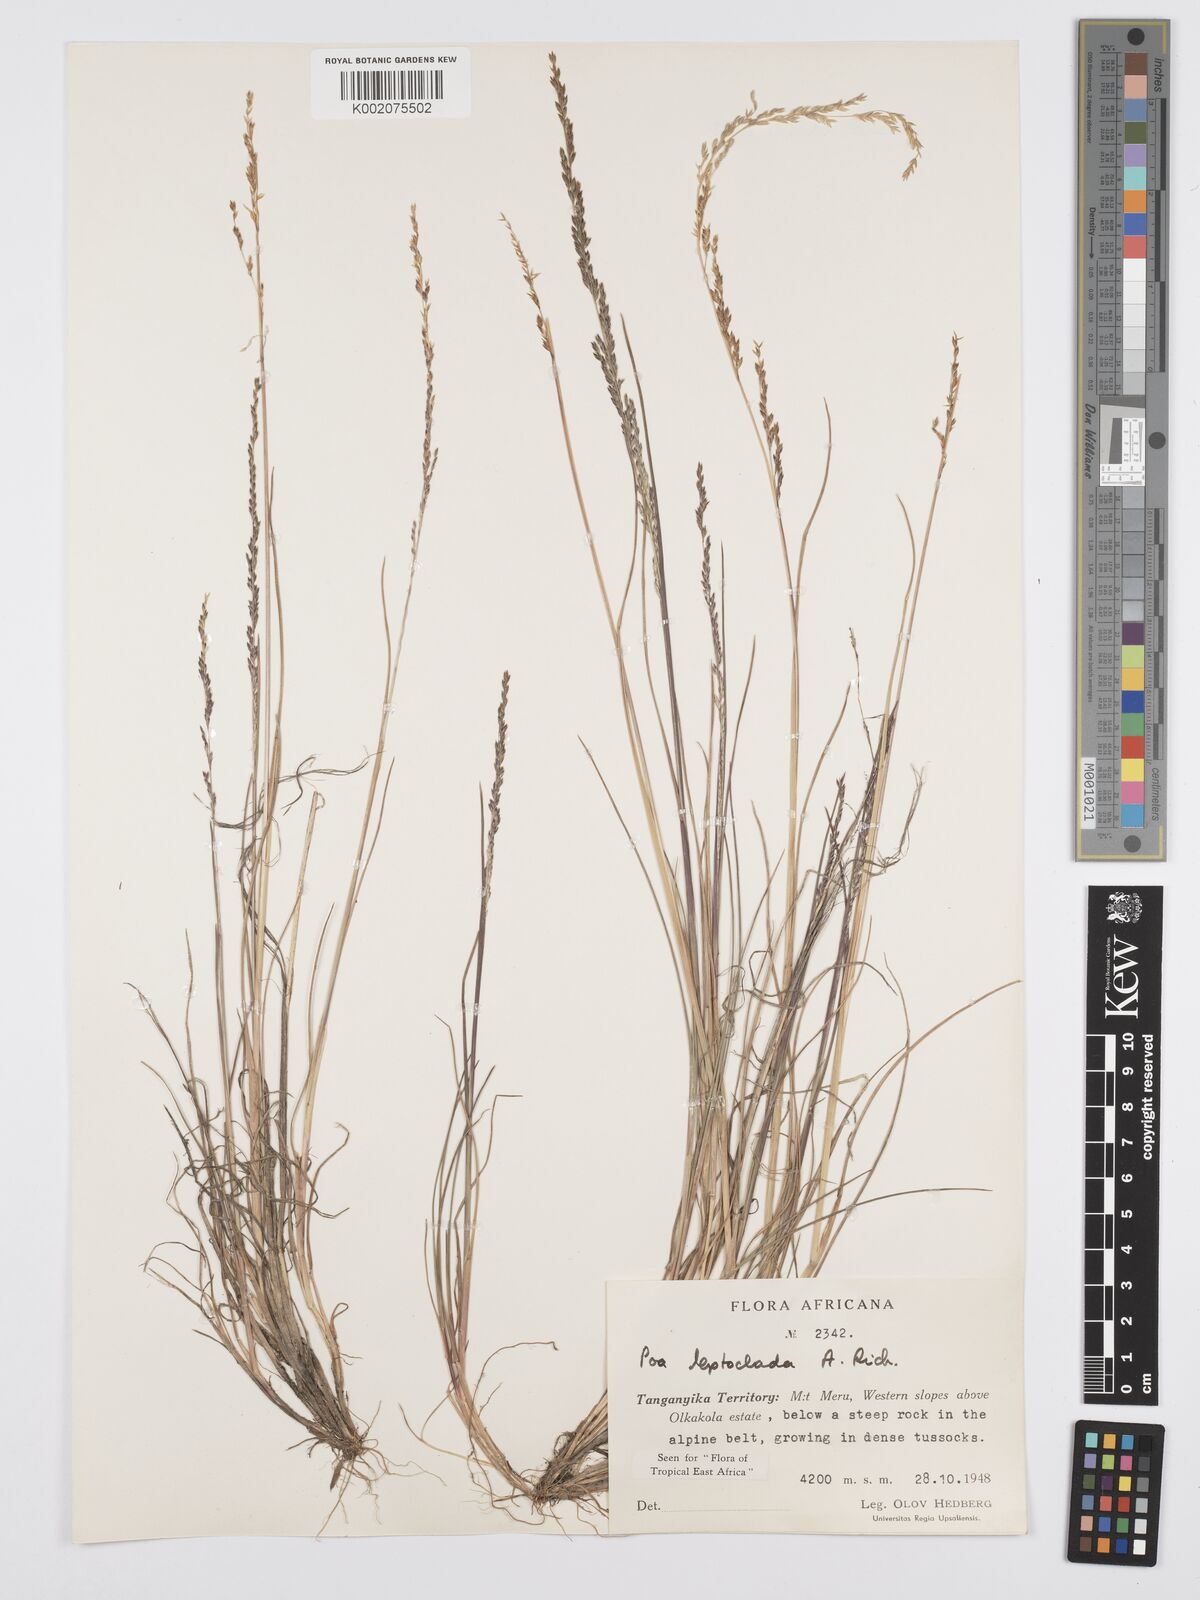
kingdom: Plantae
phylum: Tracheophyta
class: Liliopsida
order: Poales
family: Poaceae
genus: Poa
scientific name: Poa leptoclada
